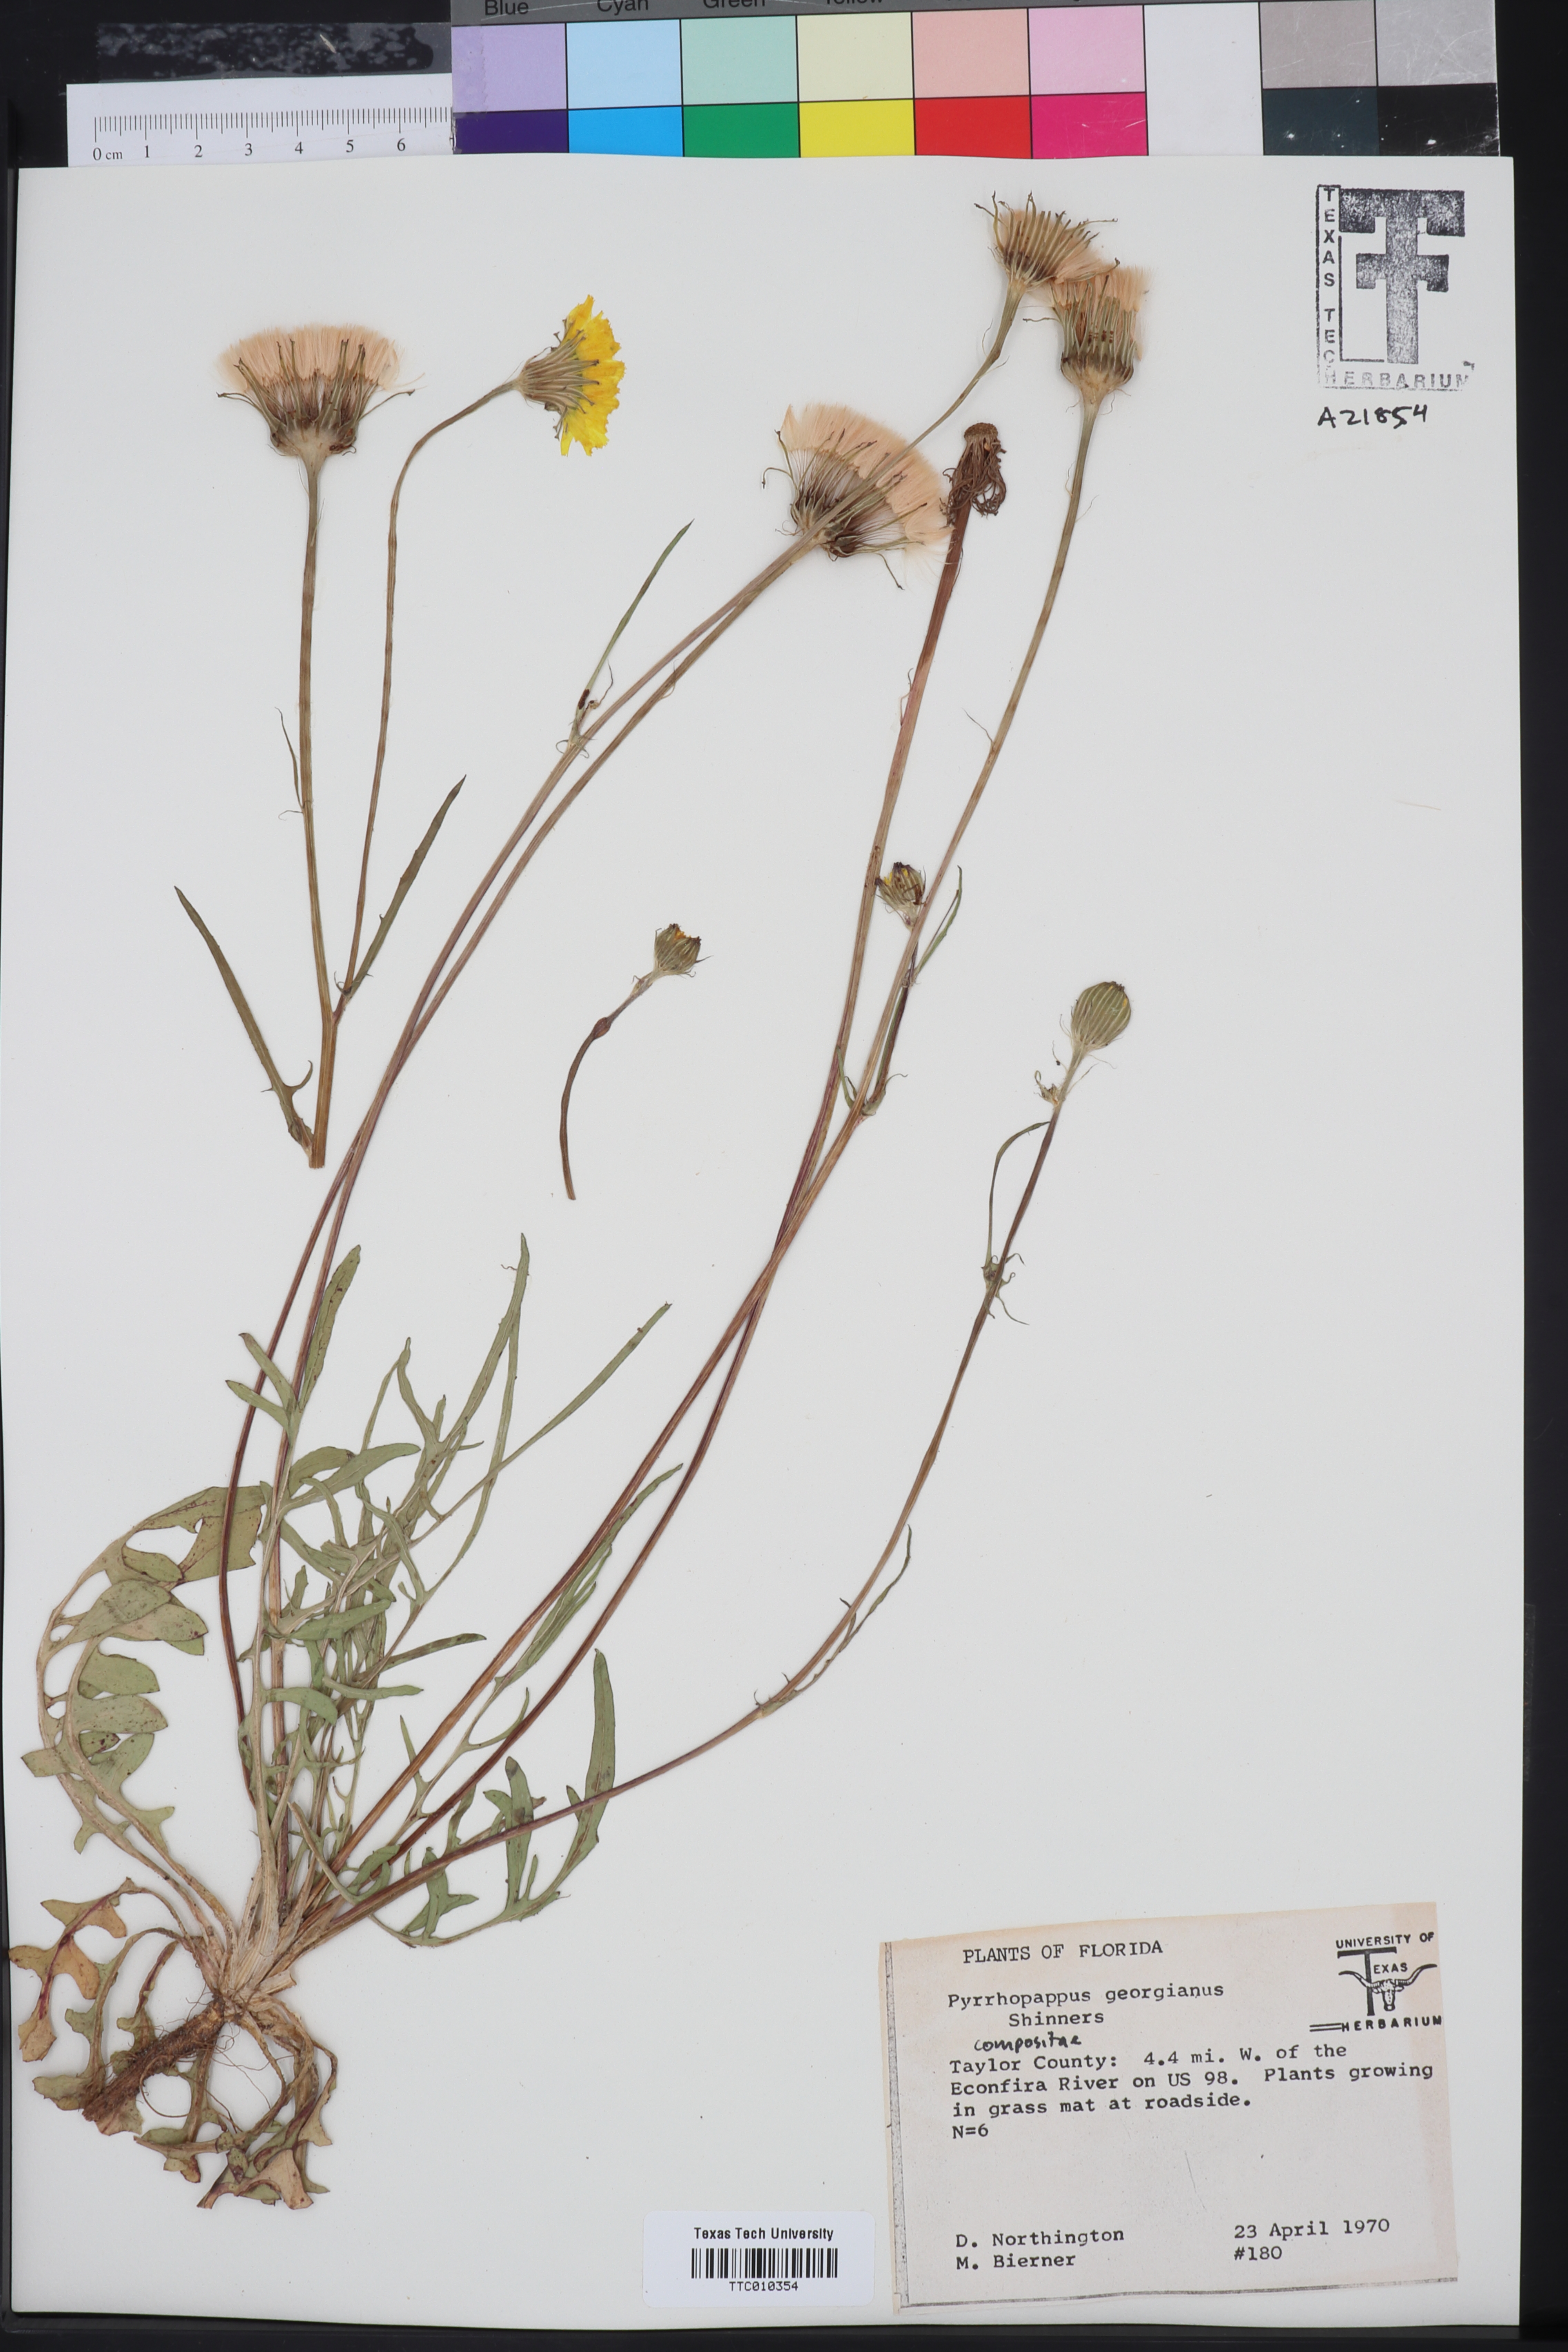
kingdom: Plantae
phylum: Tracheophyta
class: Magnoliopsida
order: Asterales
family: Asteraceae
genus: Pyrrhopappus
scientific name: Pyrrhopappus carolinianus
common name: Carolina desert-chicory
